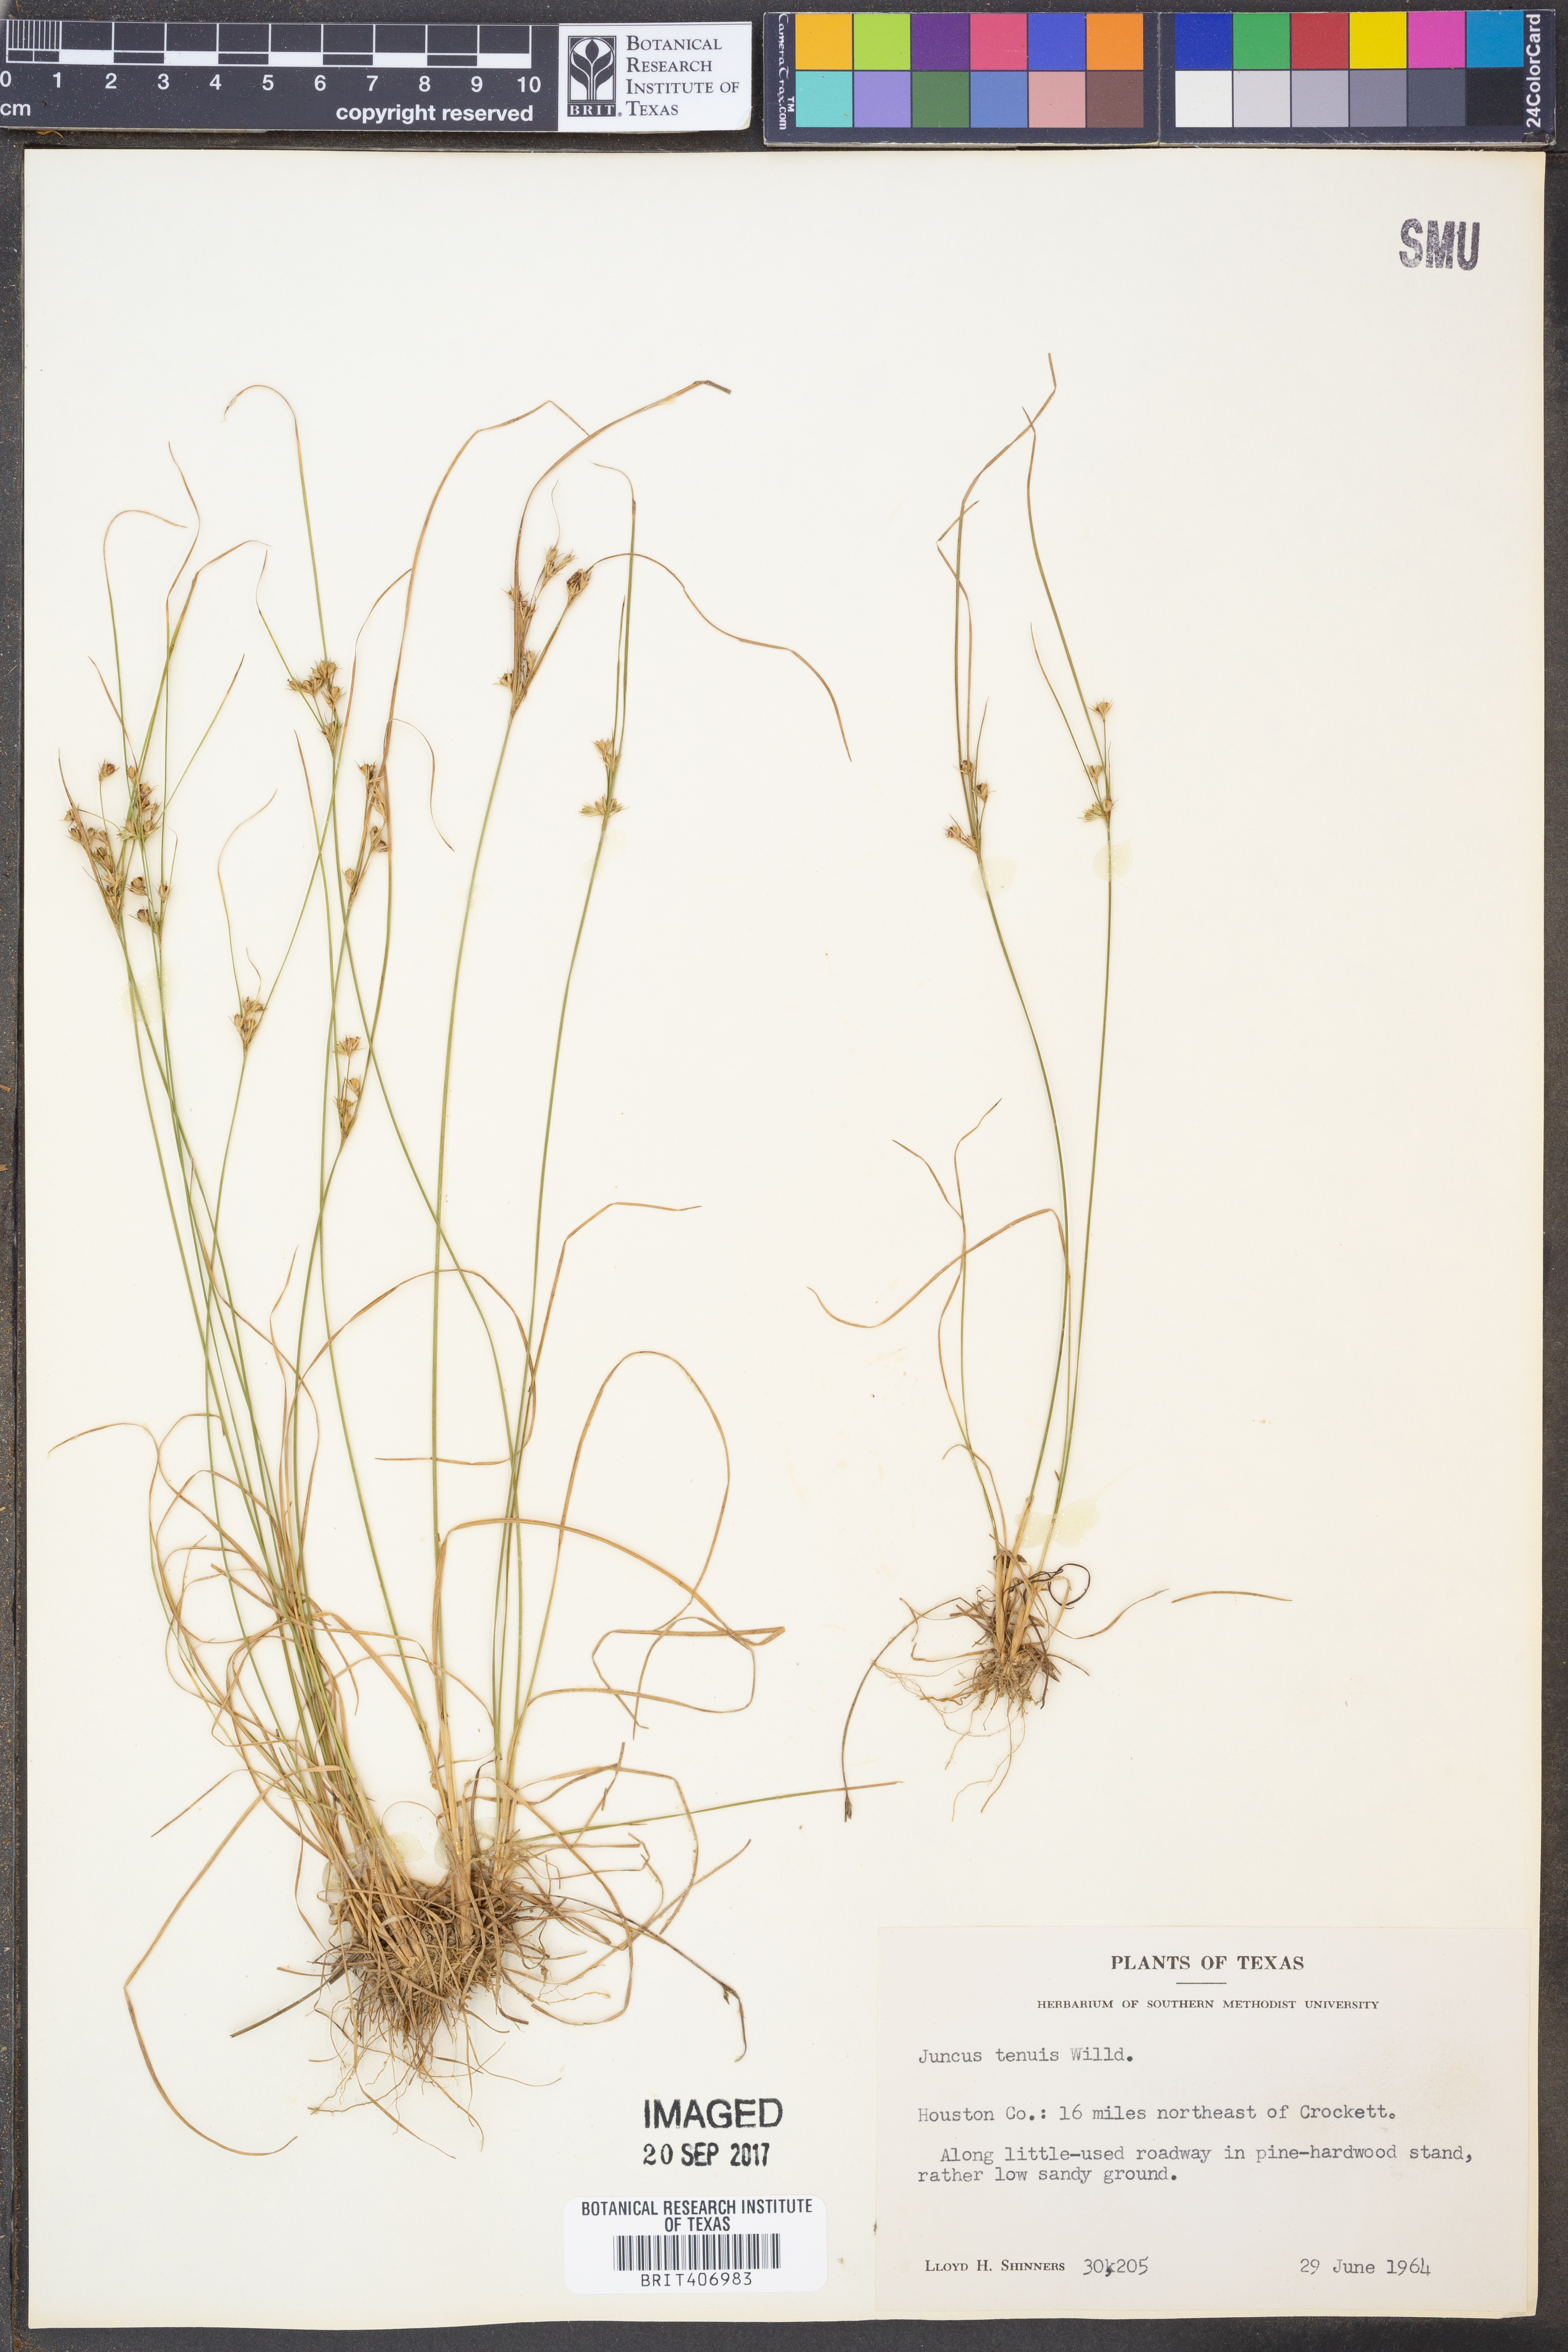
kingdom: Plantae
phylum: Tracheophyta
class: Liliopsida
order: Poales
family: Juncaceae
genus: Juncus
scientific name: Juncus tenuis
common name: Slender rush
